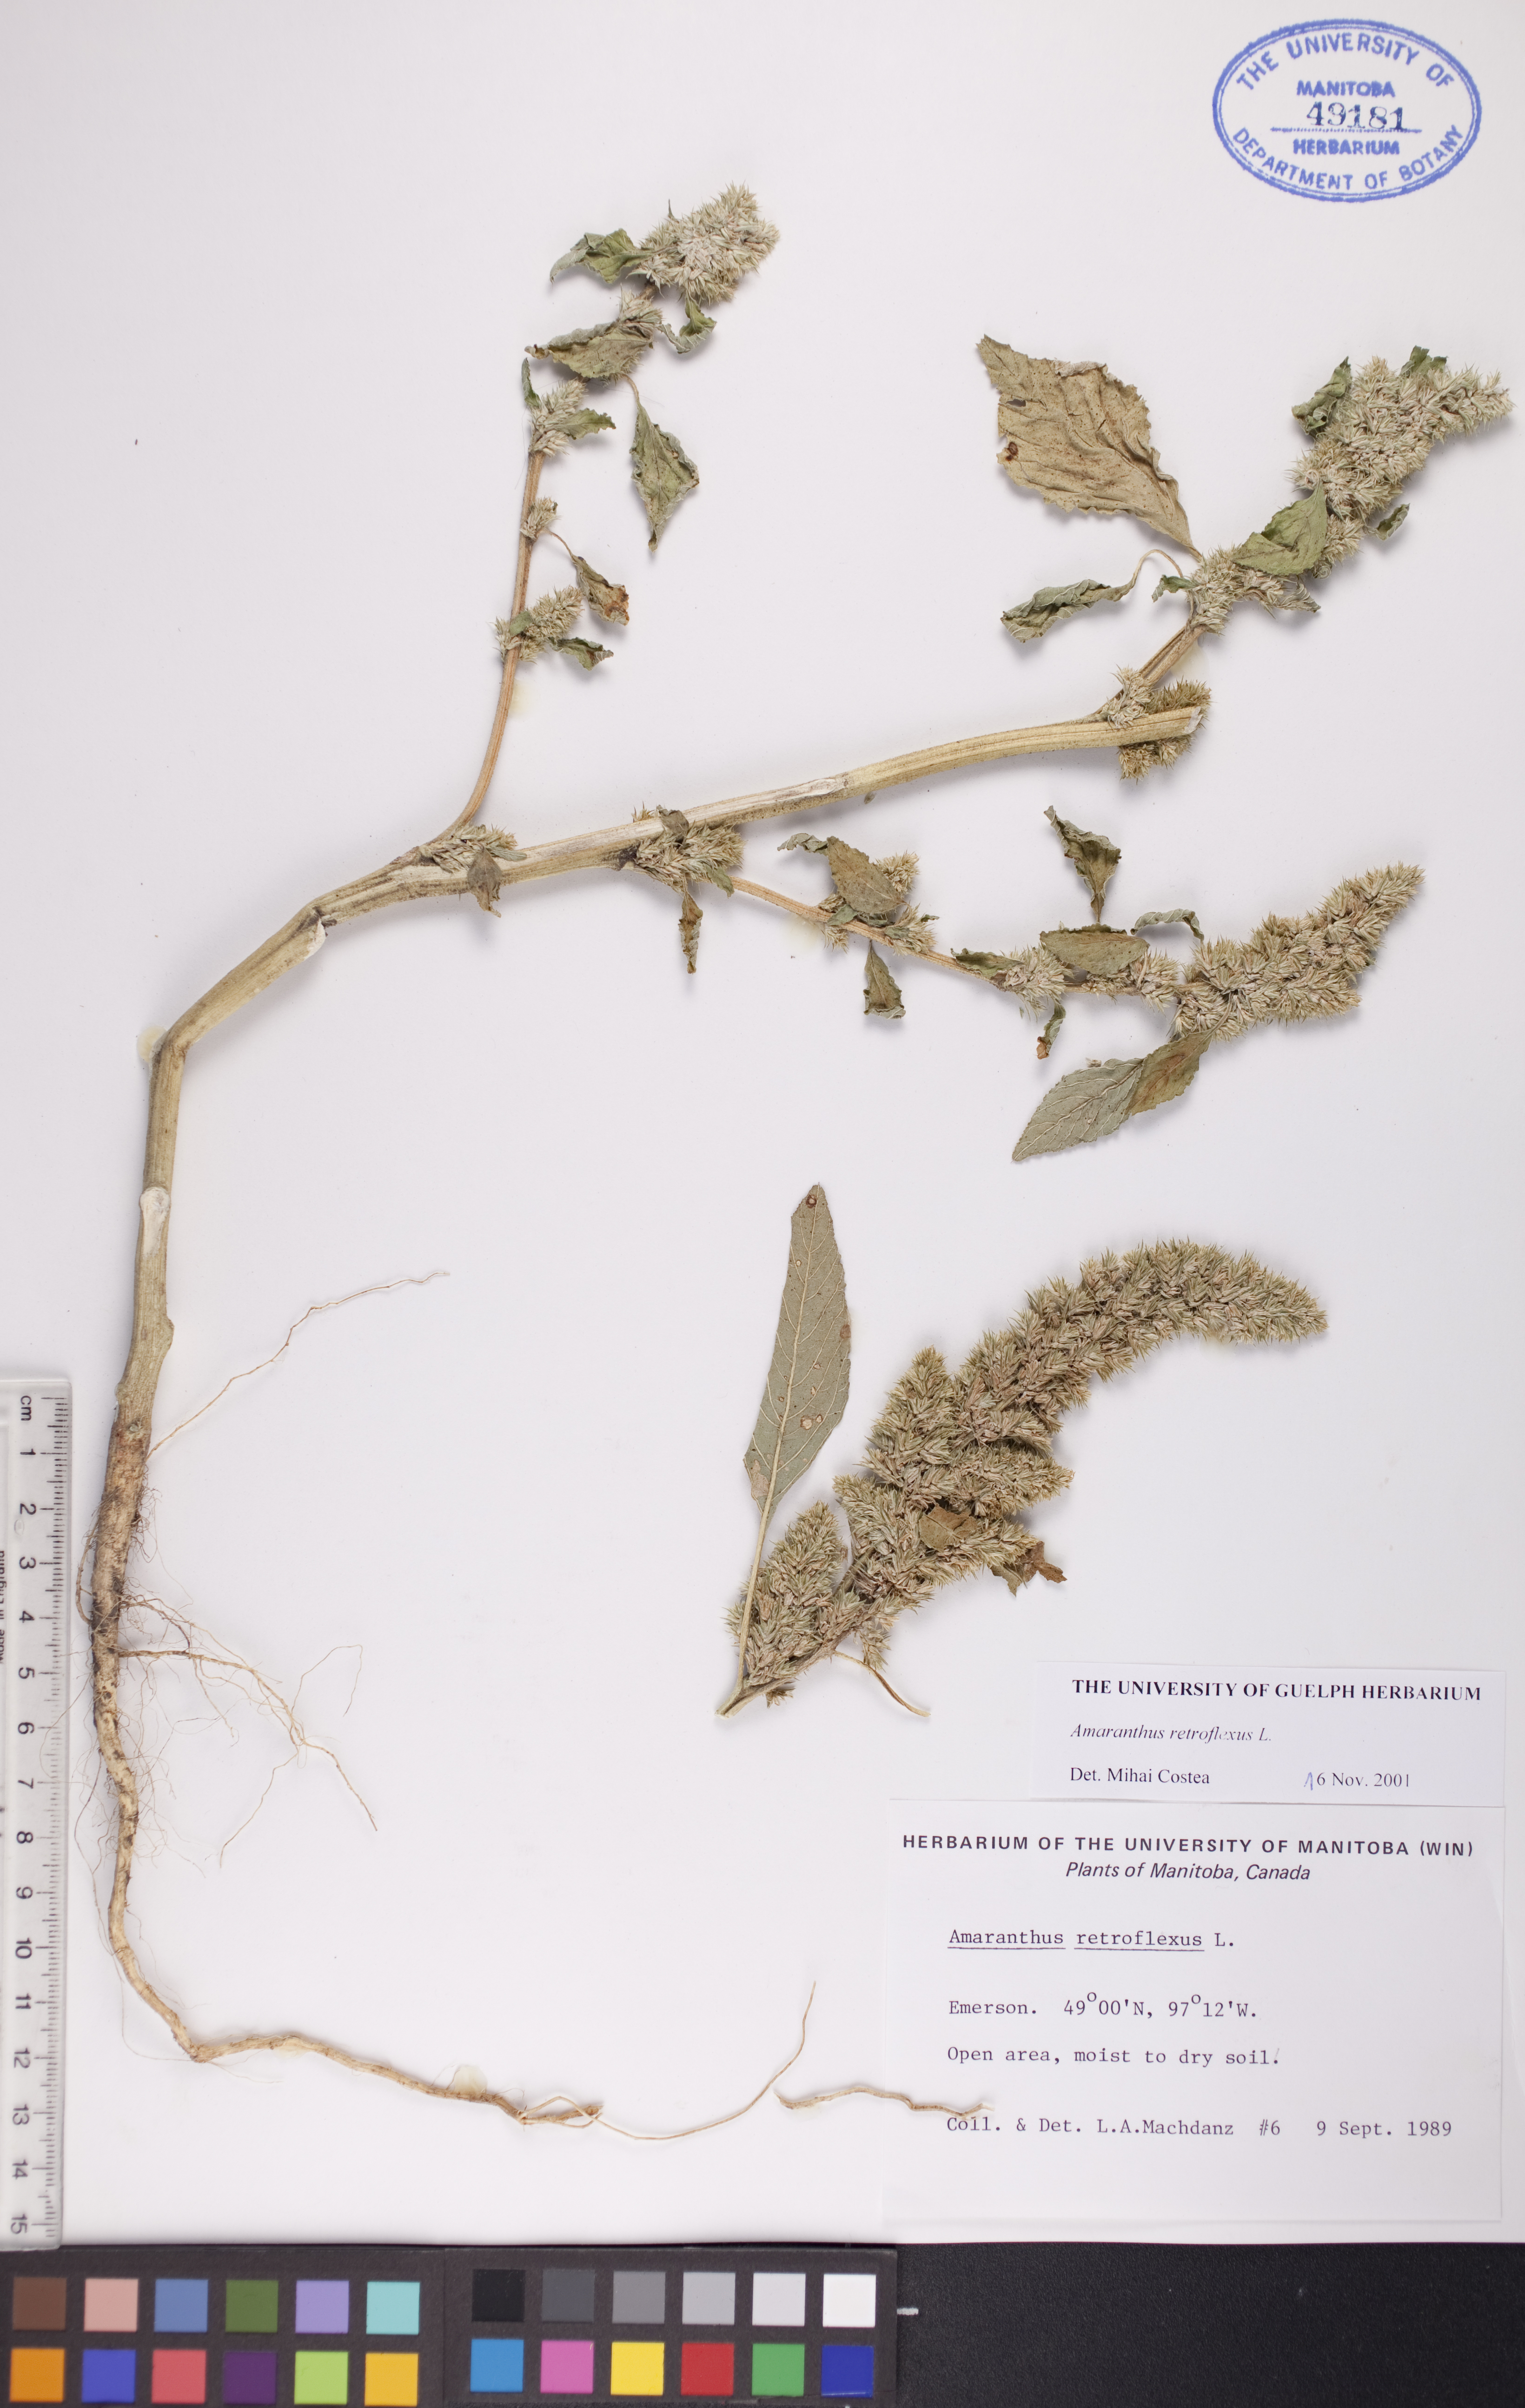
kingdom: Plantae
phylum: Tracheophyta
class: Magnoliopsida
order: Caryophyllales
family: Amaranthaceae
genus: Amaranthus
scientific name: Amaranthus retroflexus
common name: Redroot amaranth
